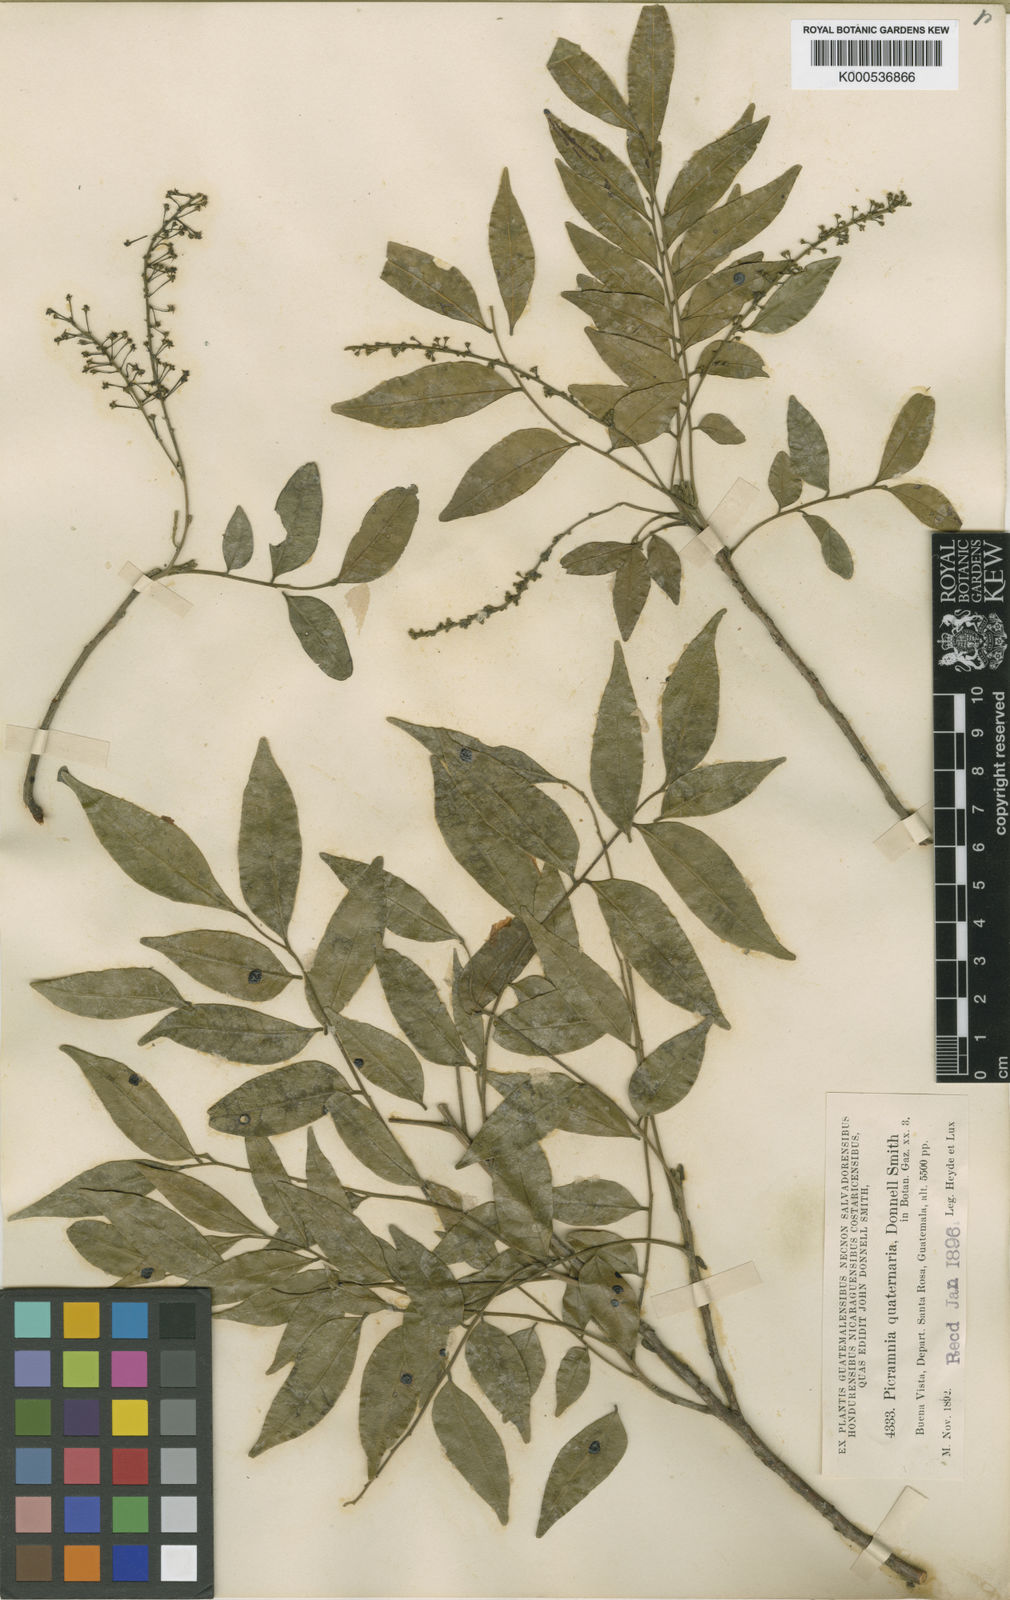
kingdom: Plantae
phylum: Tracheophyta
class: Magnoliopsida
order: Picramniales
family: Picramniaceae
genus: Picramnia
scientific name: Picramnia antidesma
